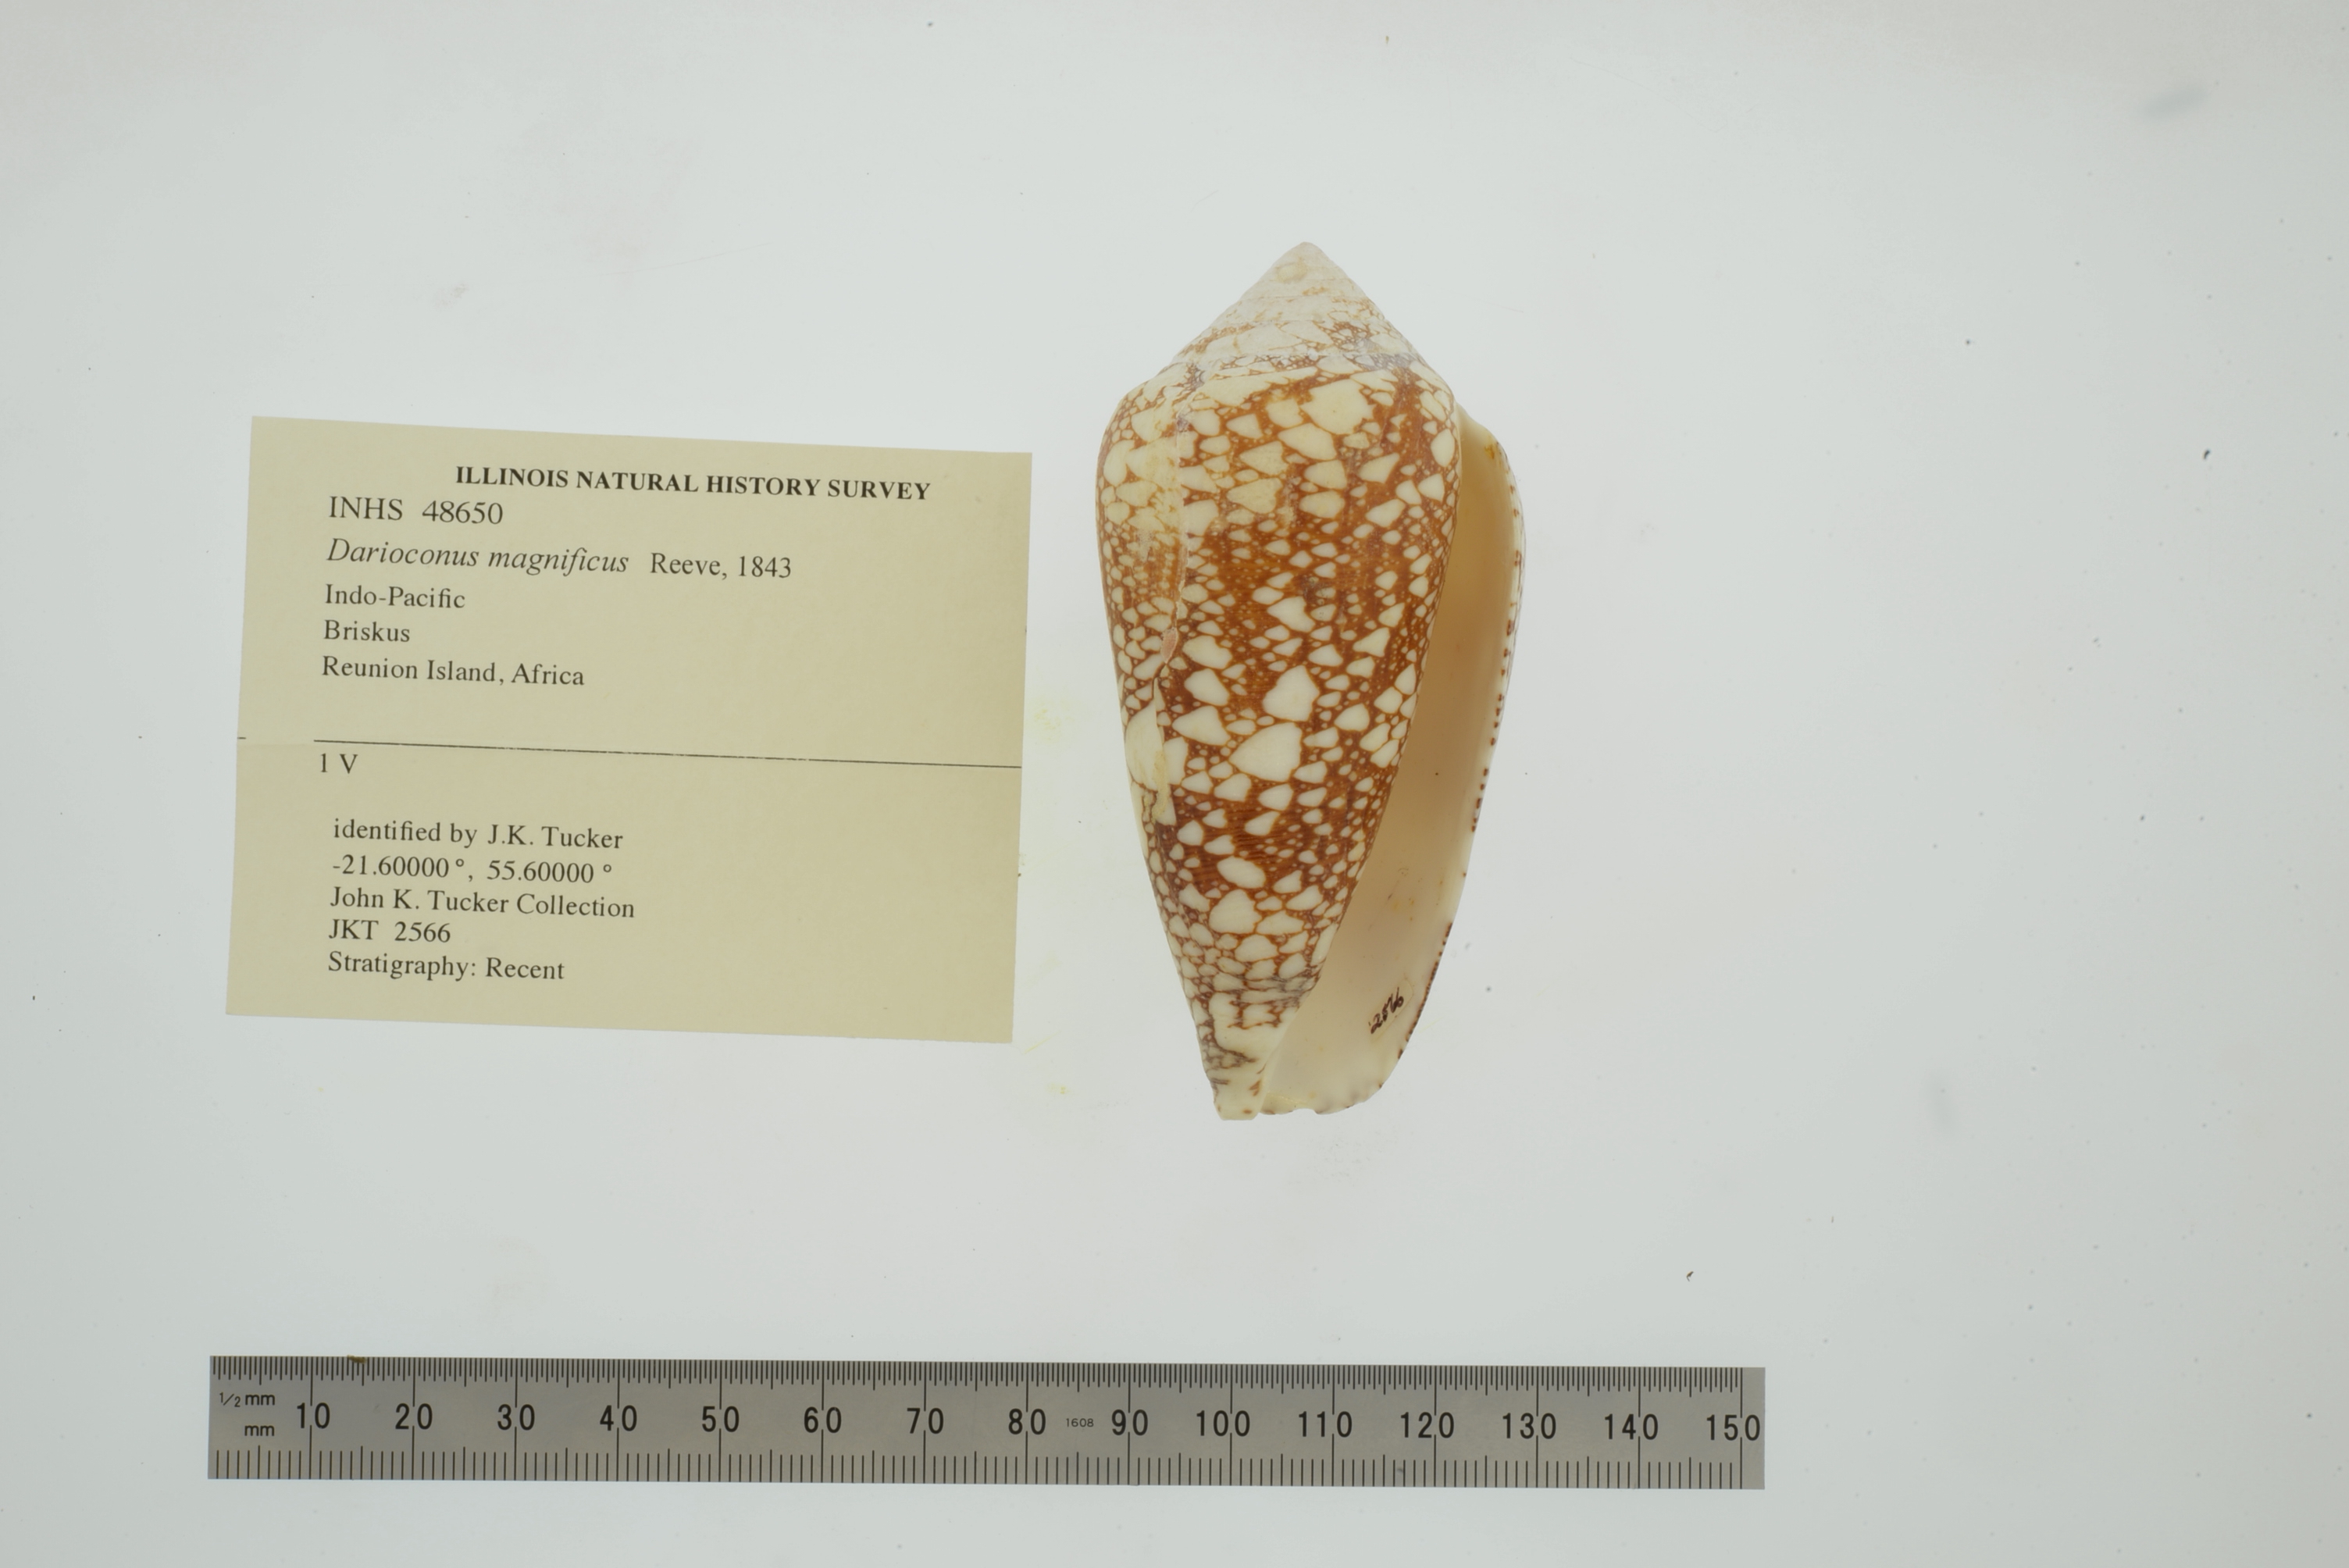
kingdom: Animalia
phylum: Mollusca
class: Gastropoda
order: Neogastropoda
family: Conidae
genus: Conus
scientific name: Conus magnificus
